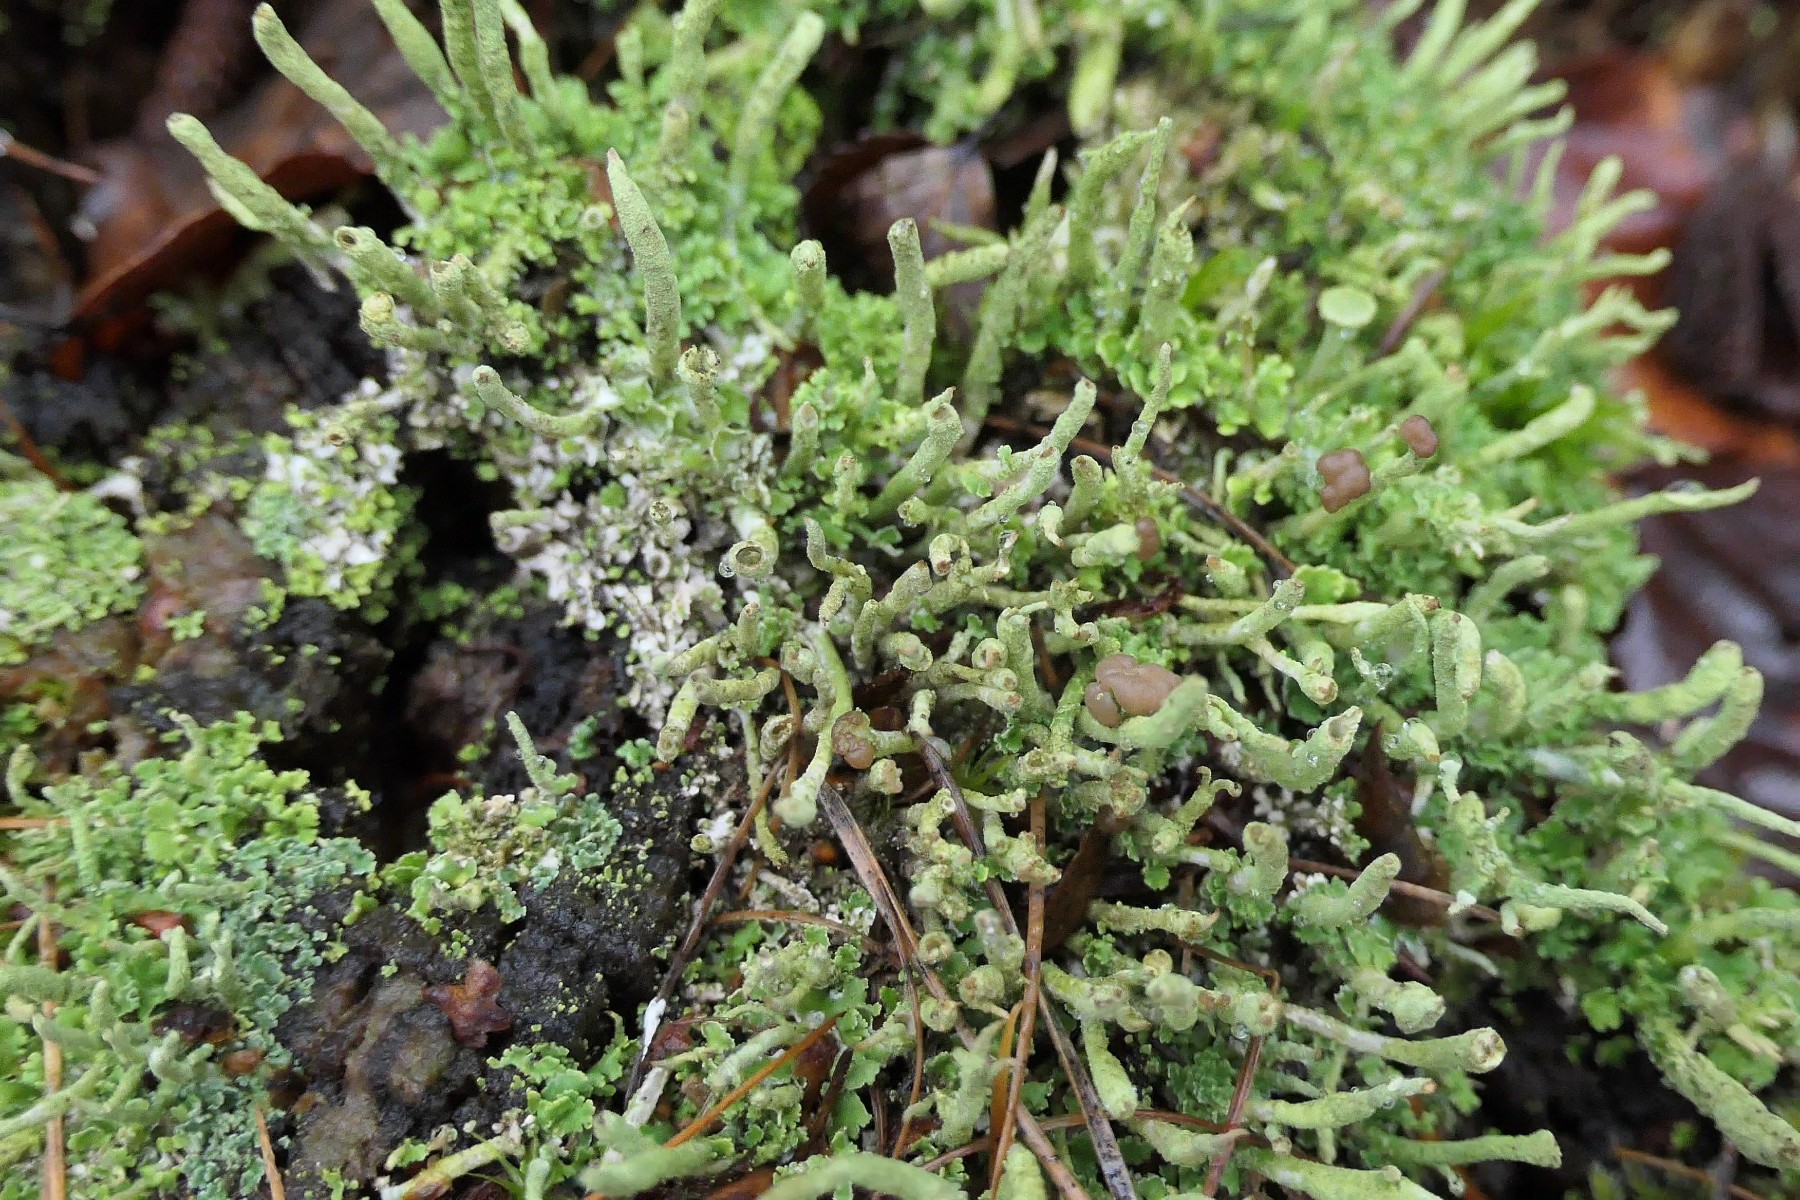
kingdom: Fungi
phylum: Ascomycota
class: Lecanoromycetes
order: Lecanorales
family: Cladoniaceae
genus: Cladonia
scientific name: Cladonia ochrochlora
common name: stød-bægerlav
